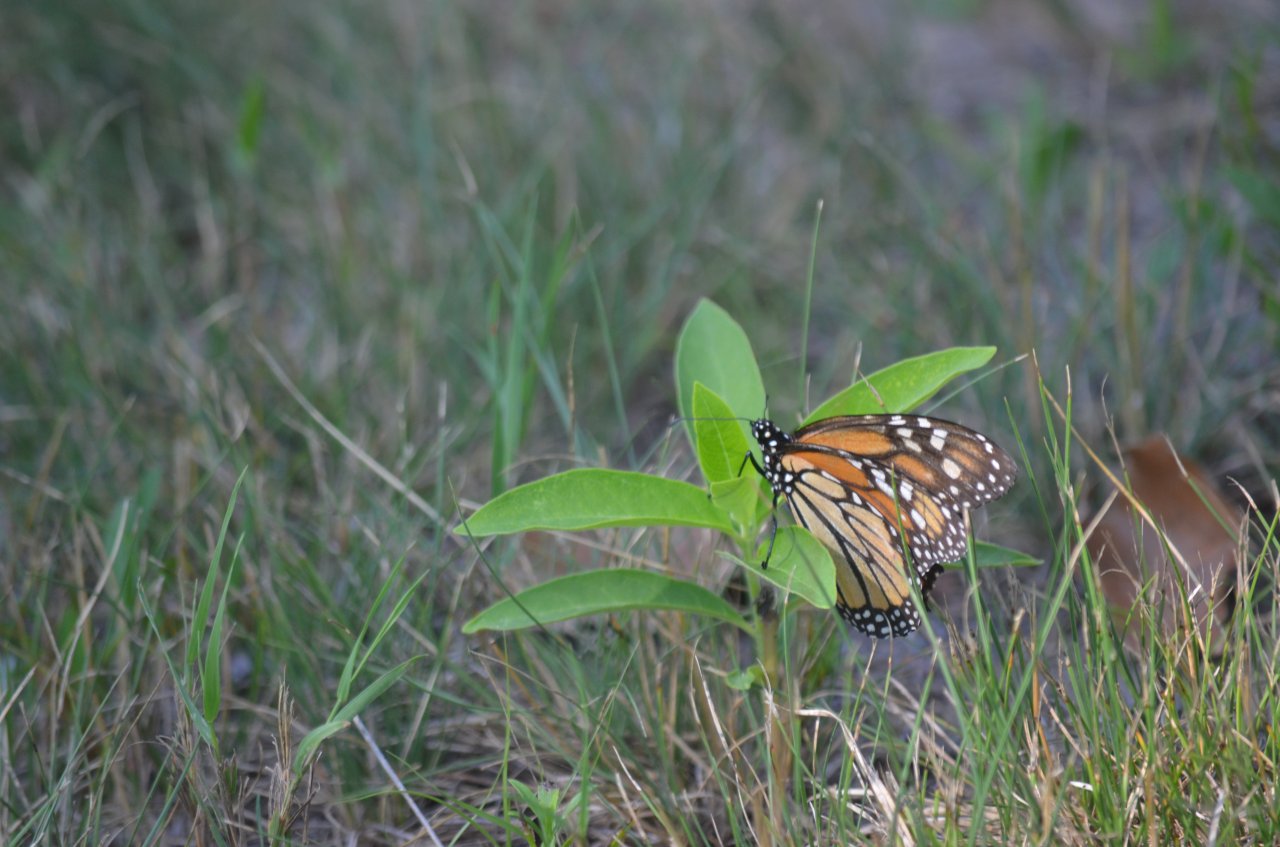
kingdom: Animalia
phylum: Arthropoda
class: Insecta
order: Lepidoptera
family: Nymphalidae
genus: Danaus
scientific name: Danaus plexippus
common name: Monarch
